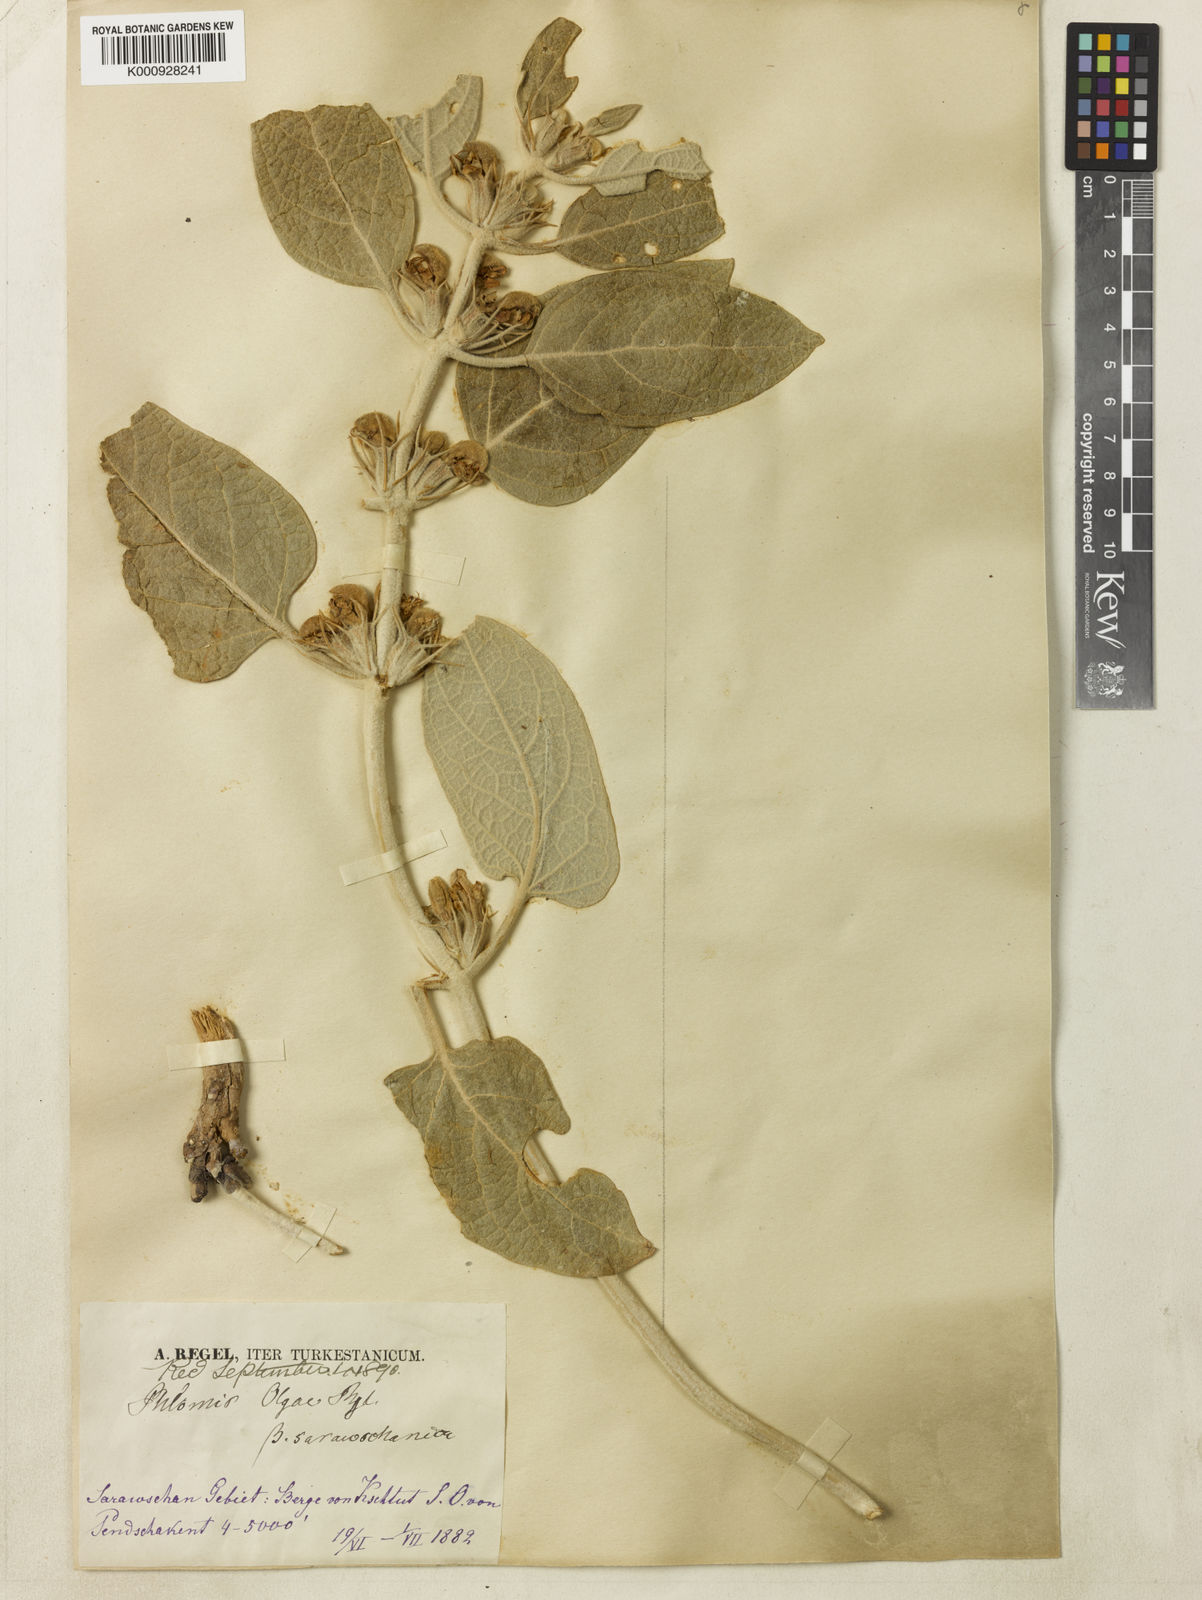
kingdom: Plantae
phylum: Tracheophyta
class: Magnoliopsida
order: Lamiales
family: Lamiaceae
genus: Phlomis
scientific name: Phlomis olgae
